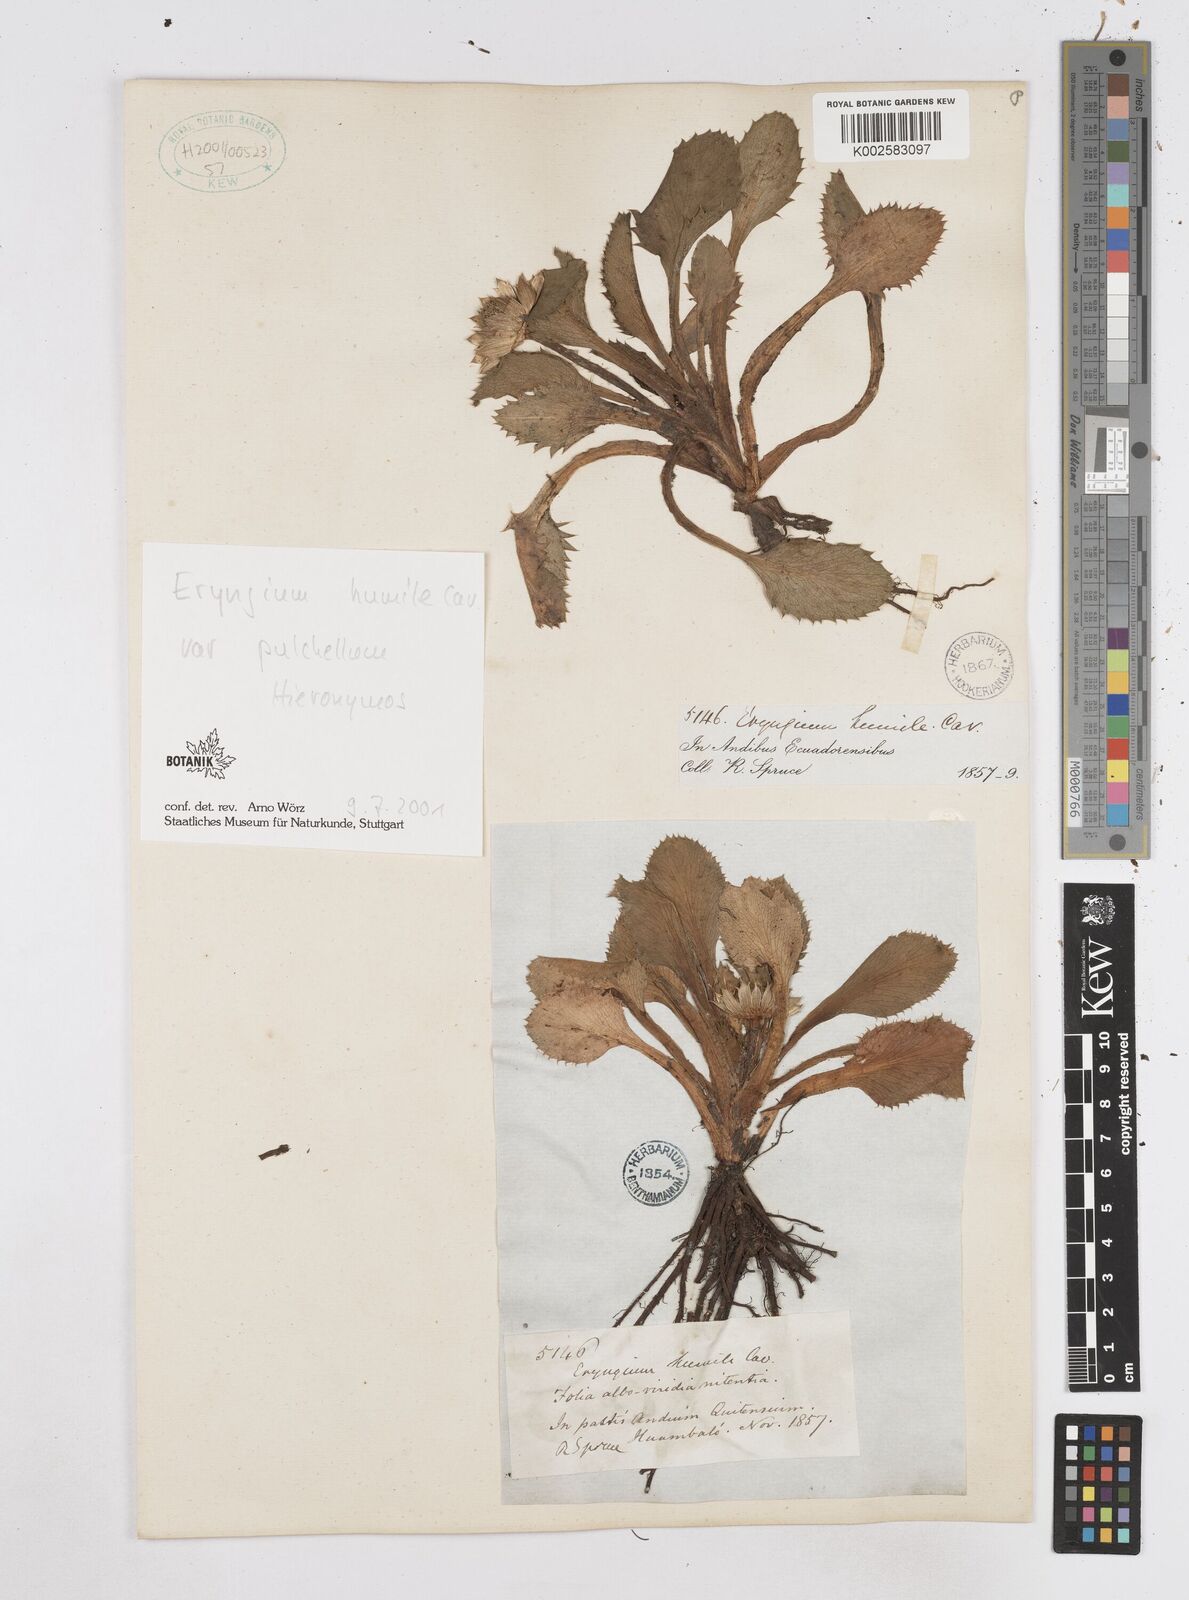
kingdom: Plantae
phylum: Tracheophyta
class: Magnoliopsida
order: Apiales
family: Apiaceae
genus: Eryngium
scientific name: Eryngium humile
